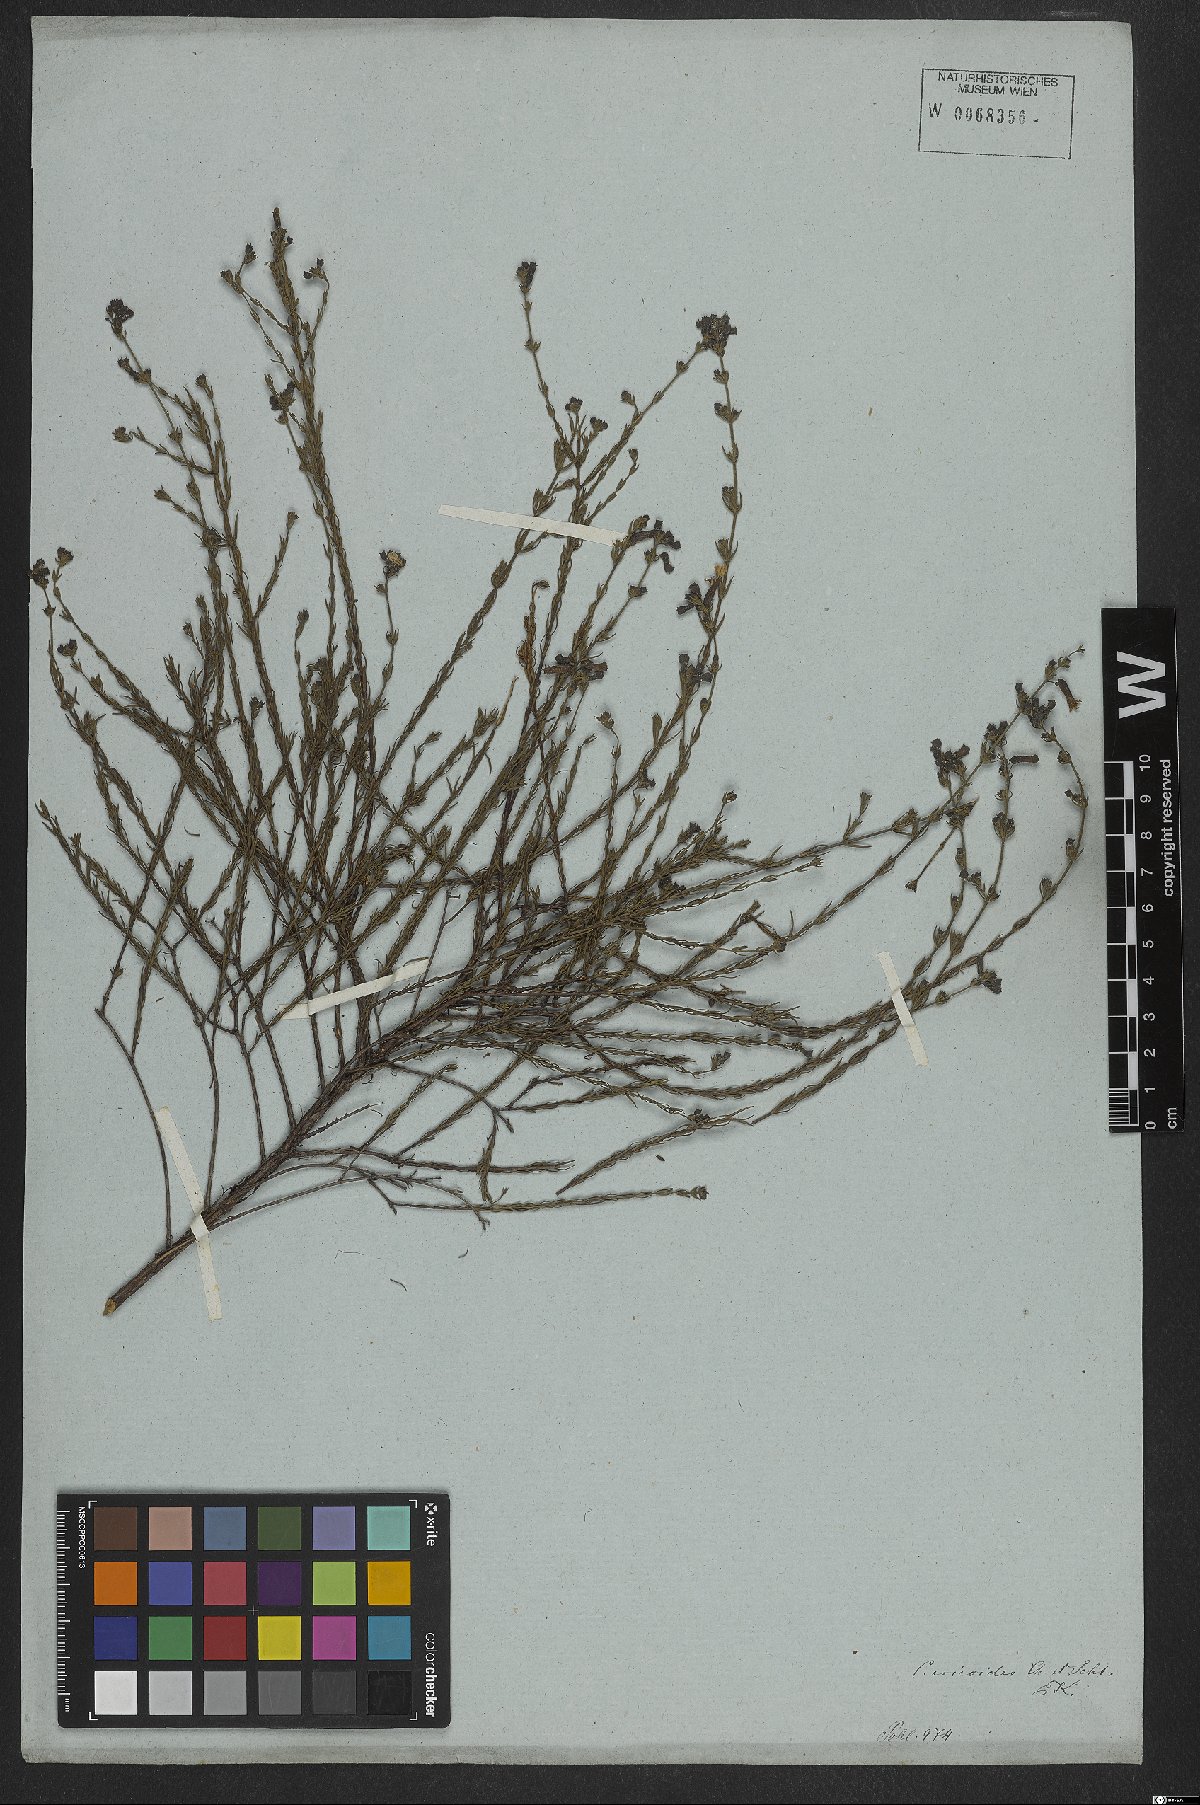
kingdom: Plantae
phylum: Tracheophyta
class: Magnoliopsida
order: Myrtales
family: Lythraceae
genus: Cuphea
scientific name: Cuphea ericoides
